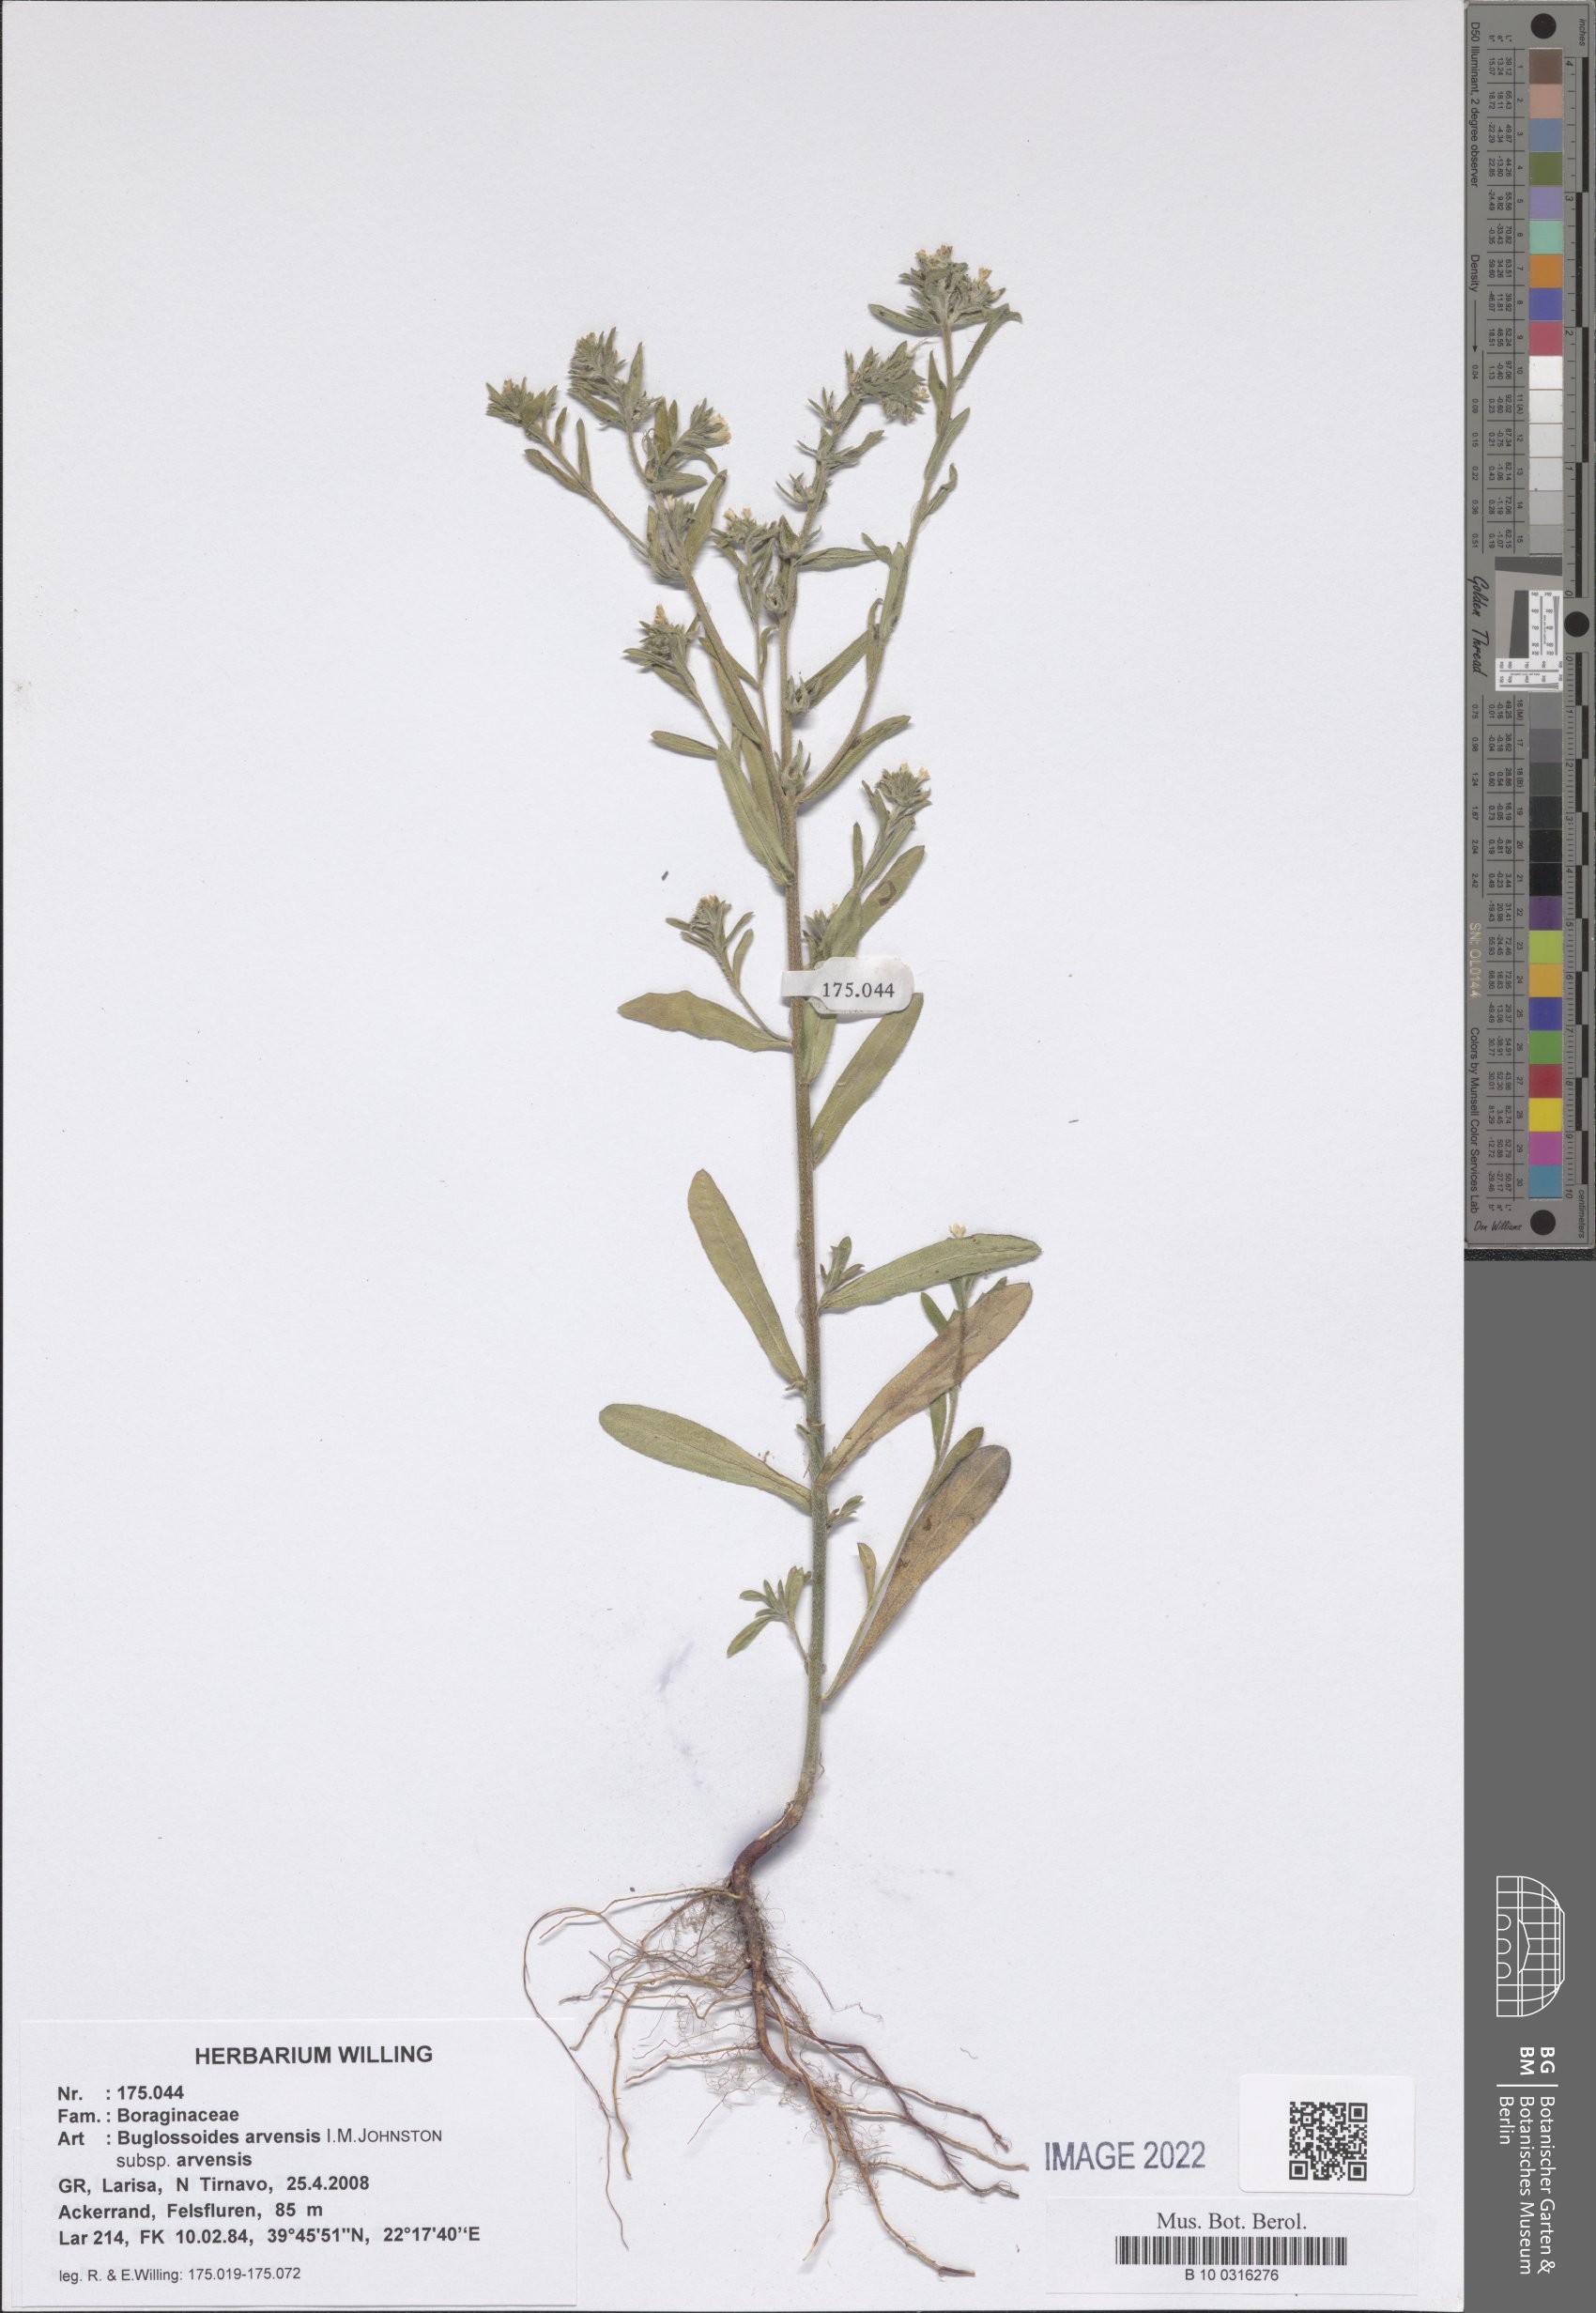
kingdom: Plantae
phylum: Tracheophyta
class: Magnoliopsida
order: Boraginales
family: Boraginaceae
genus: Buglossoides
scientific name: Buglossoides arvensis
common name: Corn gromwell
